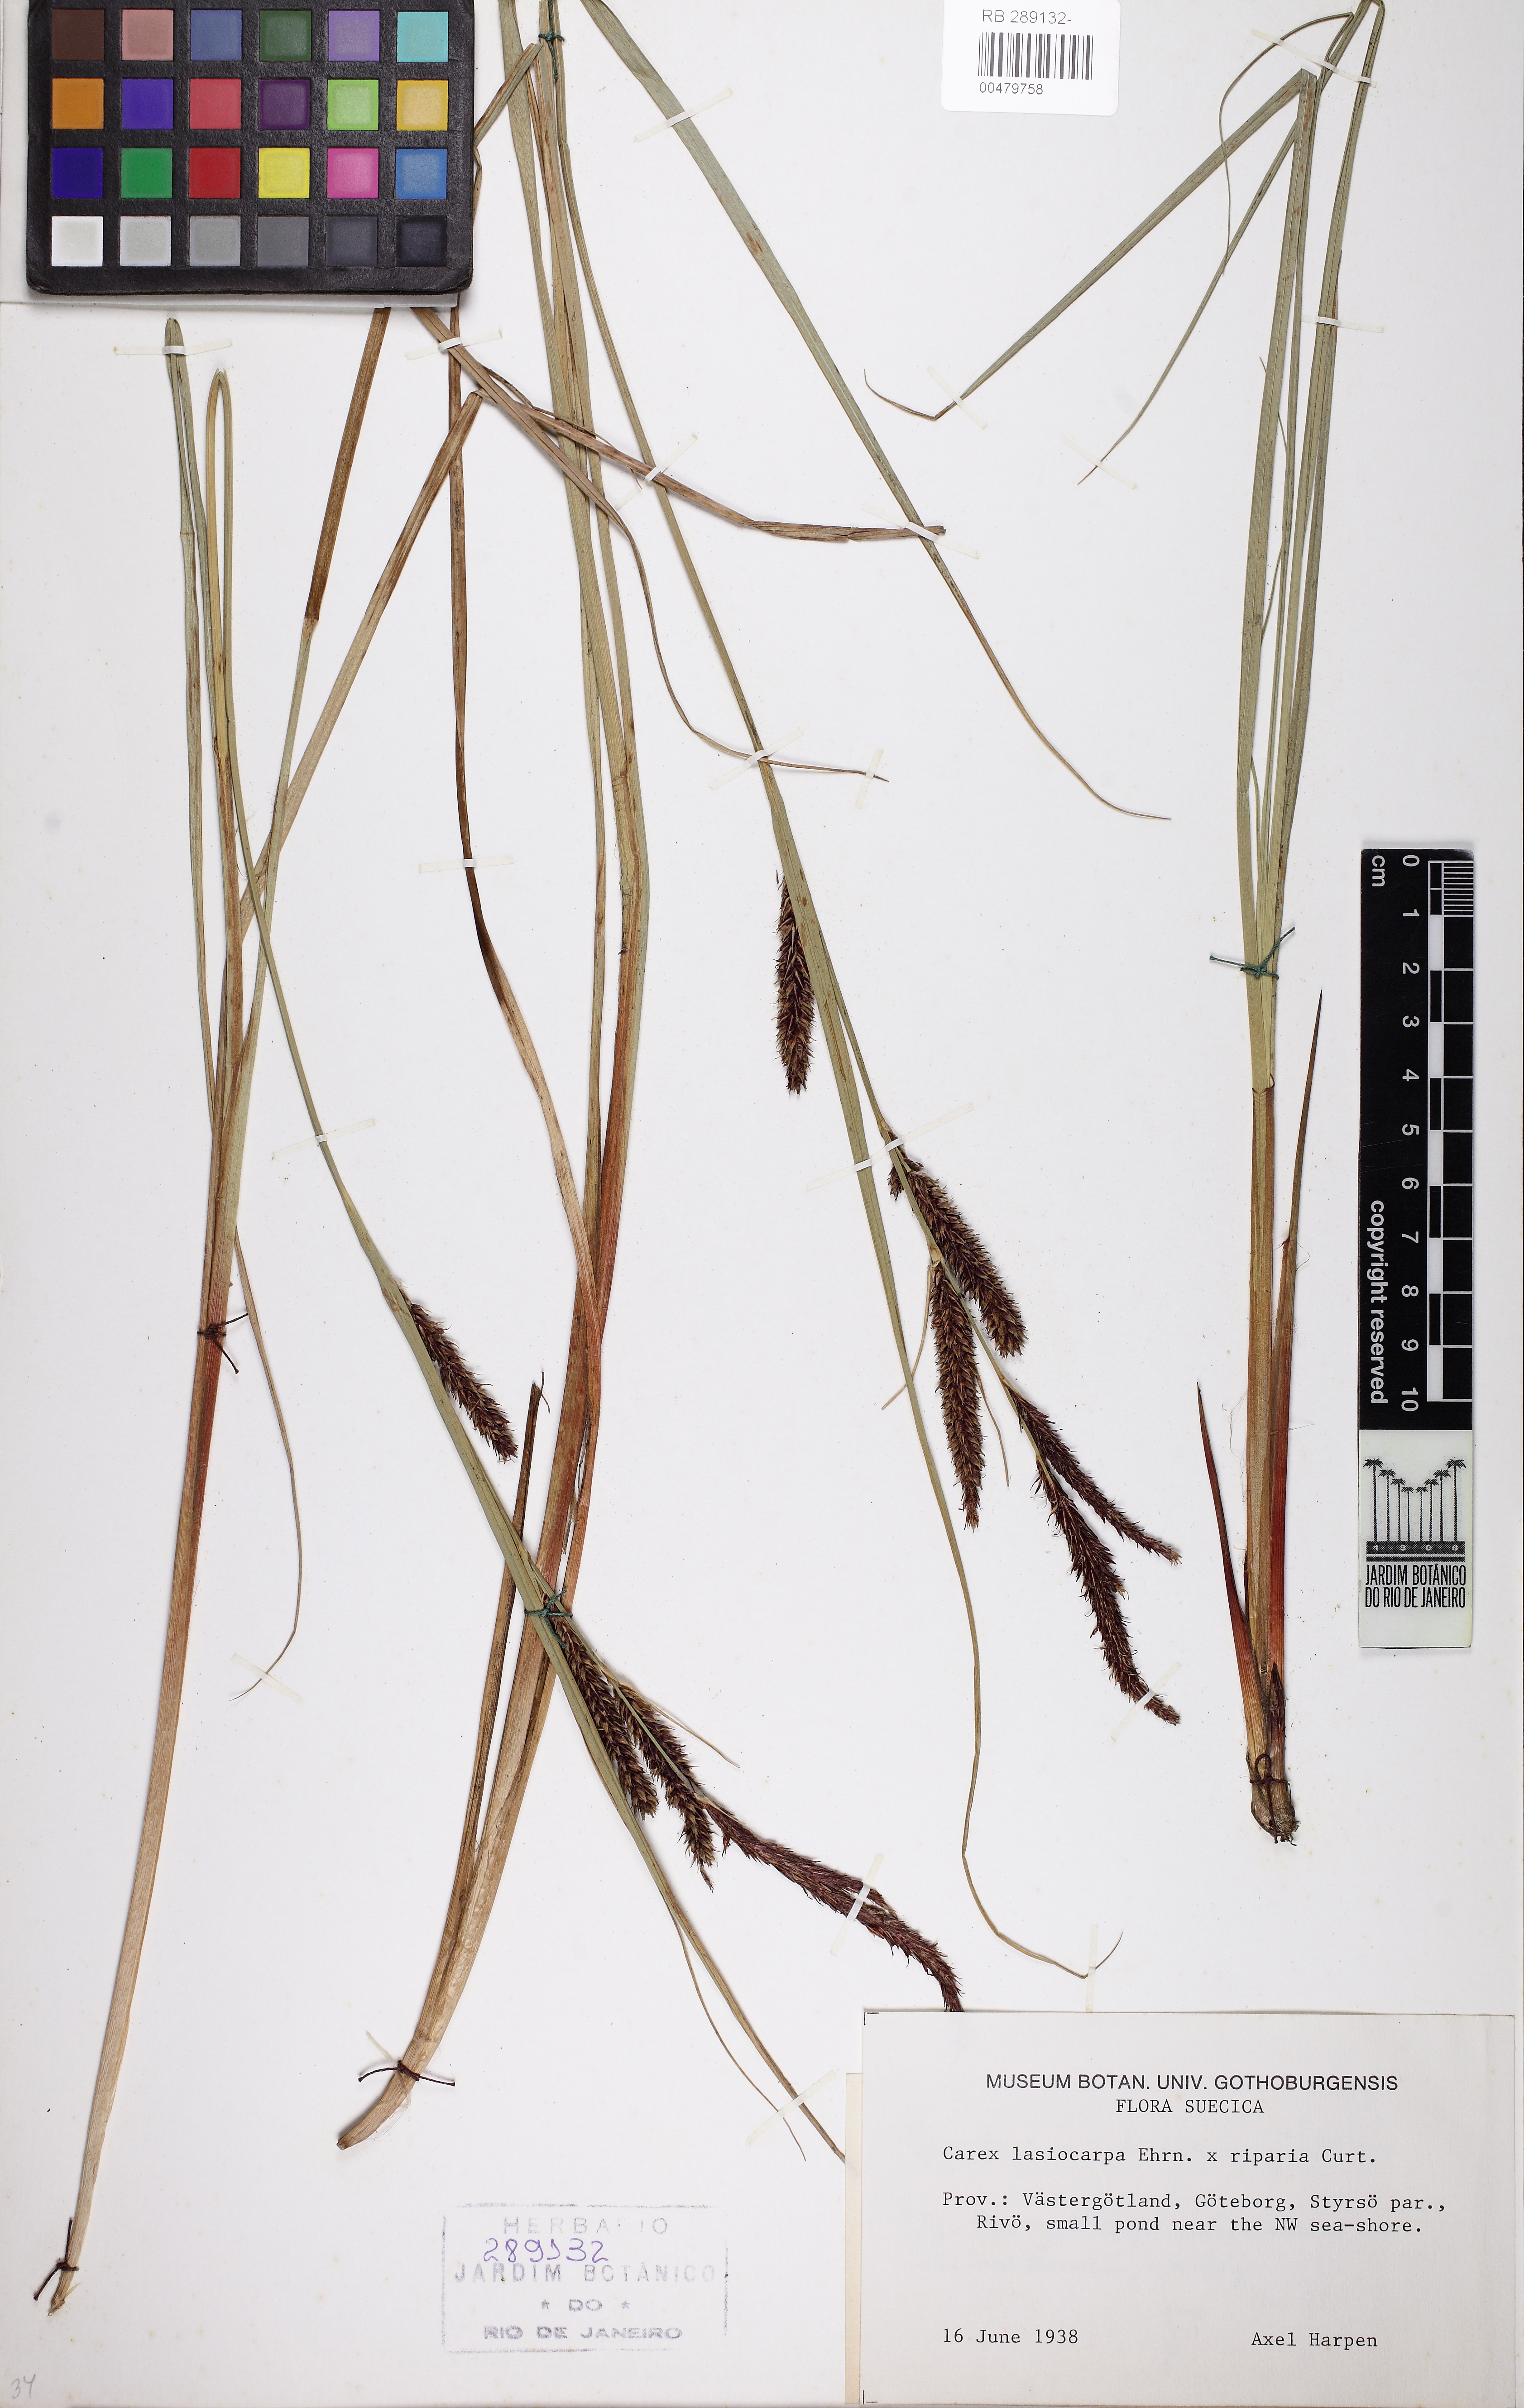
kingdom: Plantae
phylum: Tracheophyta
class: Liliopsida
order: Poales
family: Cyperaceae
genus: Carex
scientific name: Carex lasiocarpa
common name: Slender sedge
